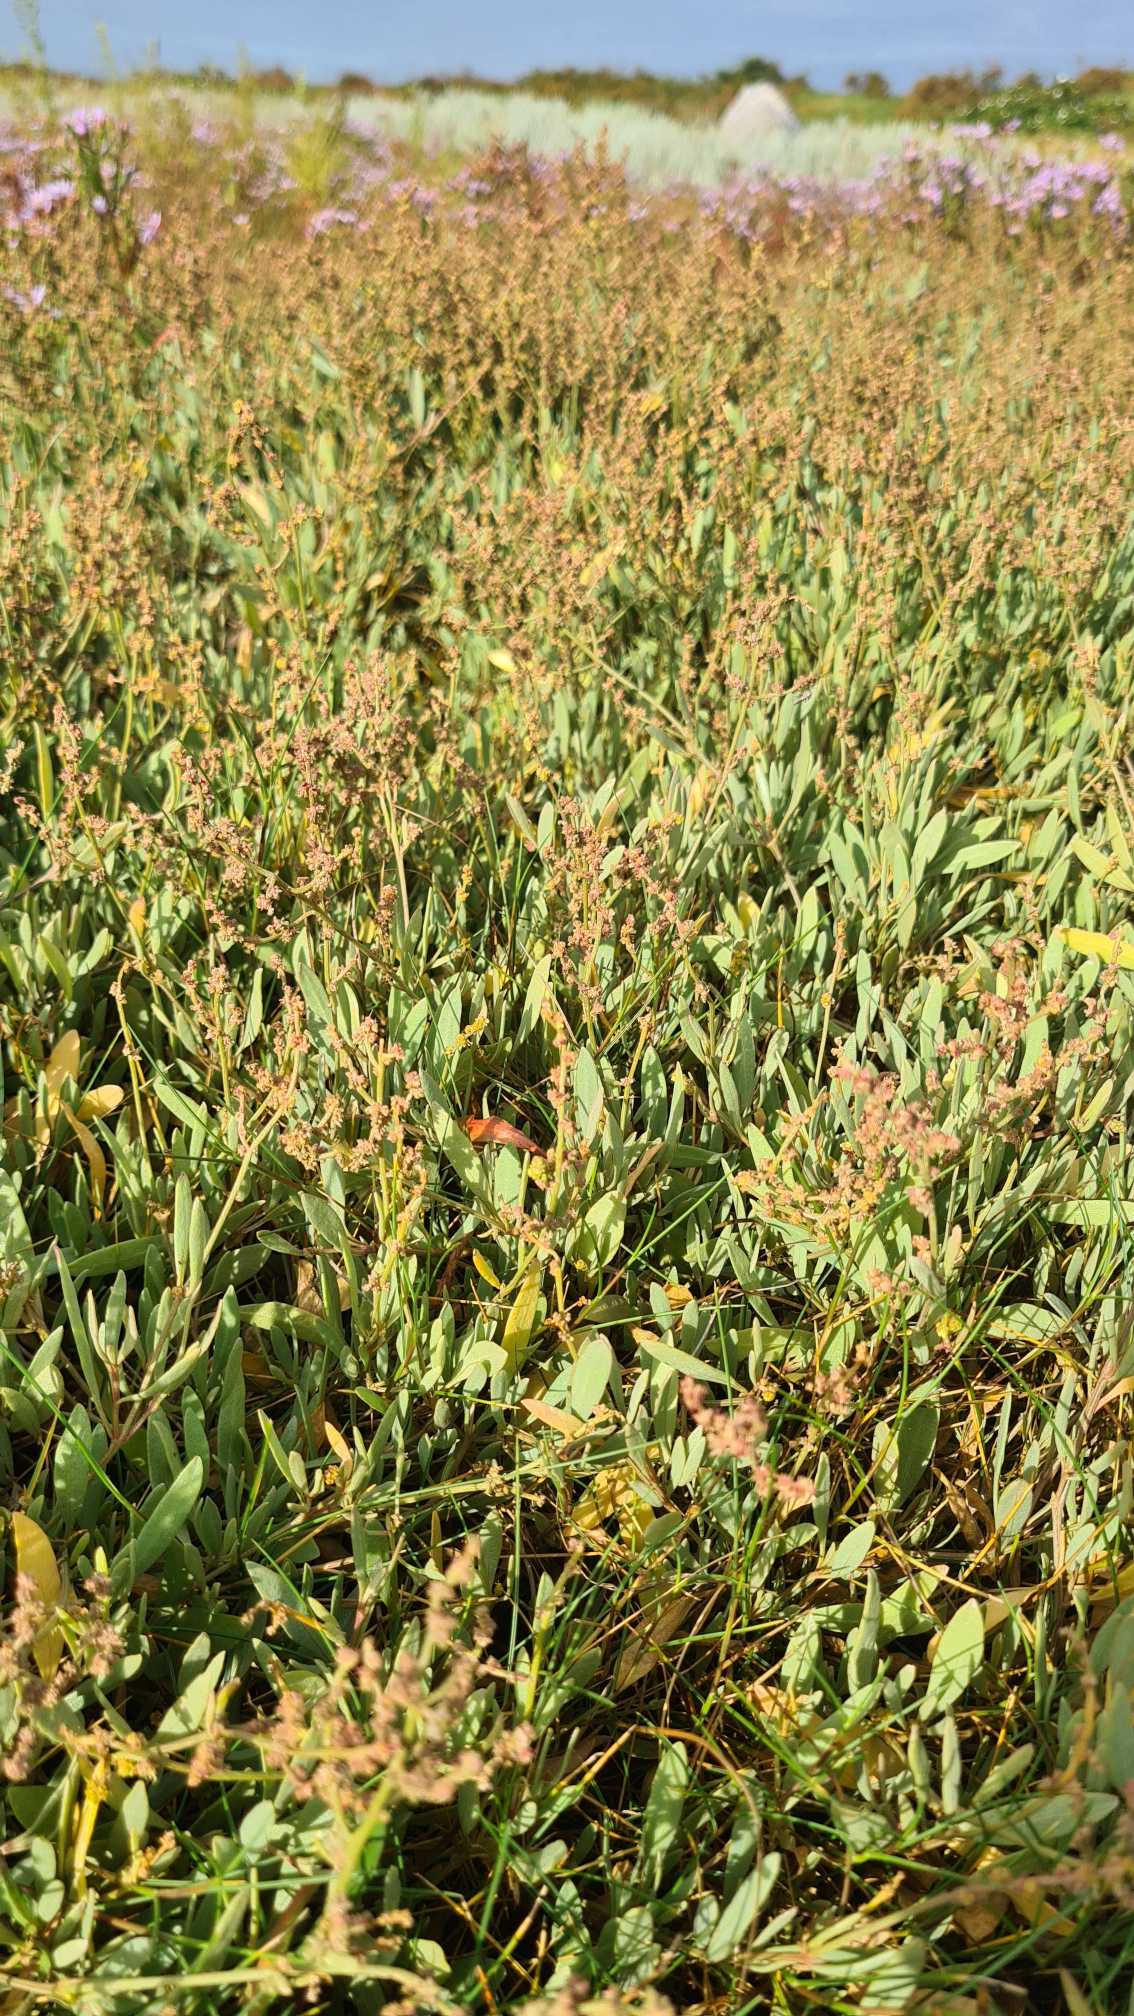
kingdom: Plantae
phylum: Tracheophyta
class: Magnoliopsida
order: Caryophyllales
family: Amaranthaceae
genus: Halimione
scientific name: Halimione portulacoides
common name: Stilkløs kilebæger
